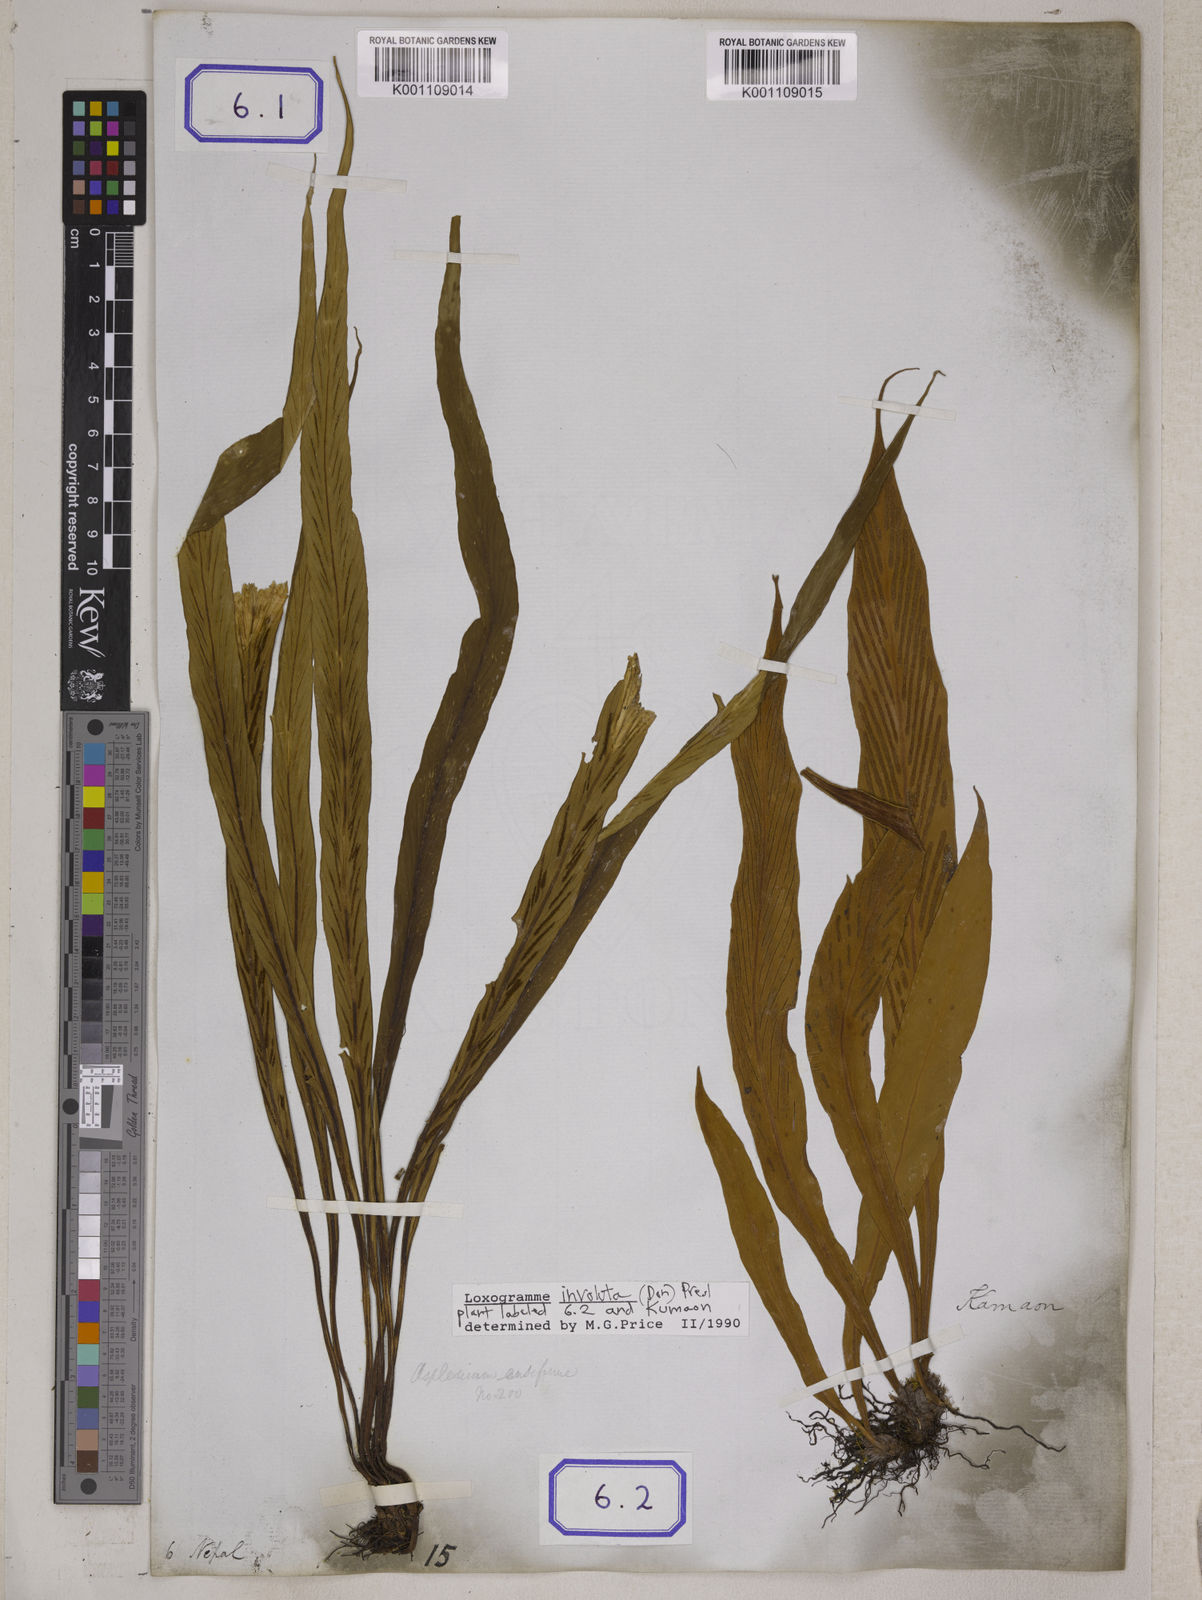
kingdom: Plantae
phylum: Tracheophyta
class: Polypodiopsida
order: Polypodiales
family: Polypodiaceae
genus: Loxogramme
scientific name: Loxogramme involuta
